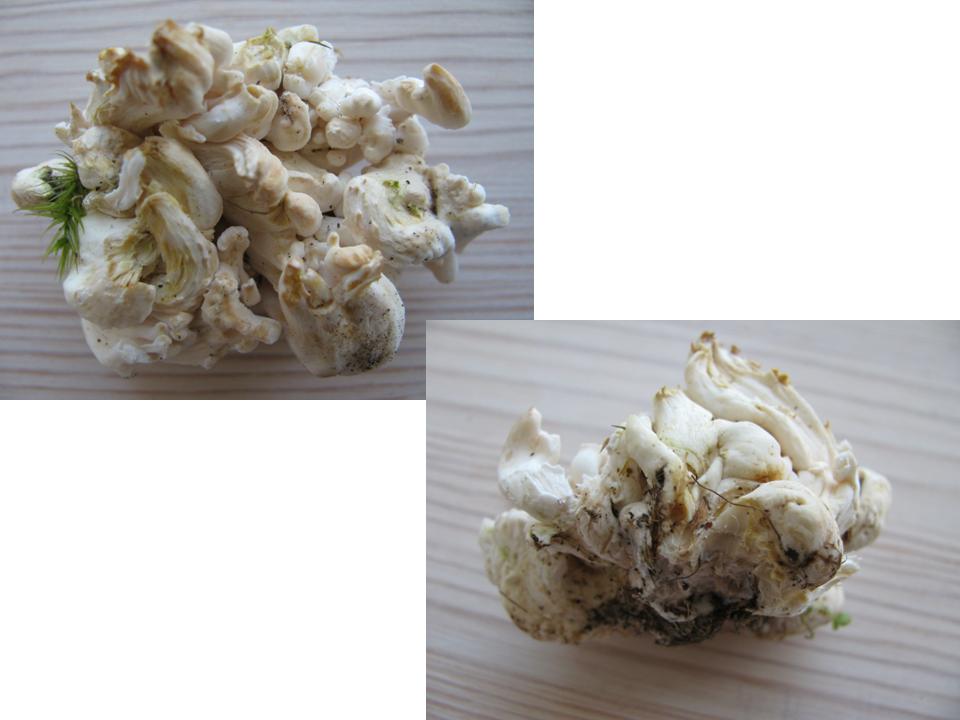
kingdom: Fungi
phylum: Basidiomycota
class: Agaricomycetes
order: Agaricales
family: Clavariaceae
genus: Ramariopsis
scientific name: Ramariopsis kunzei
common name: mangegrenet køllesvamp
